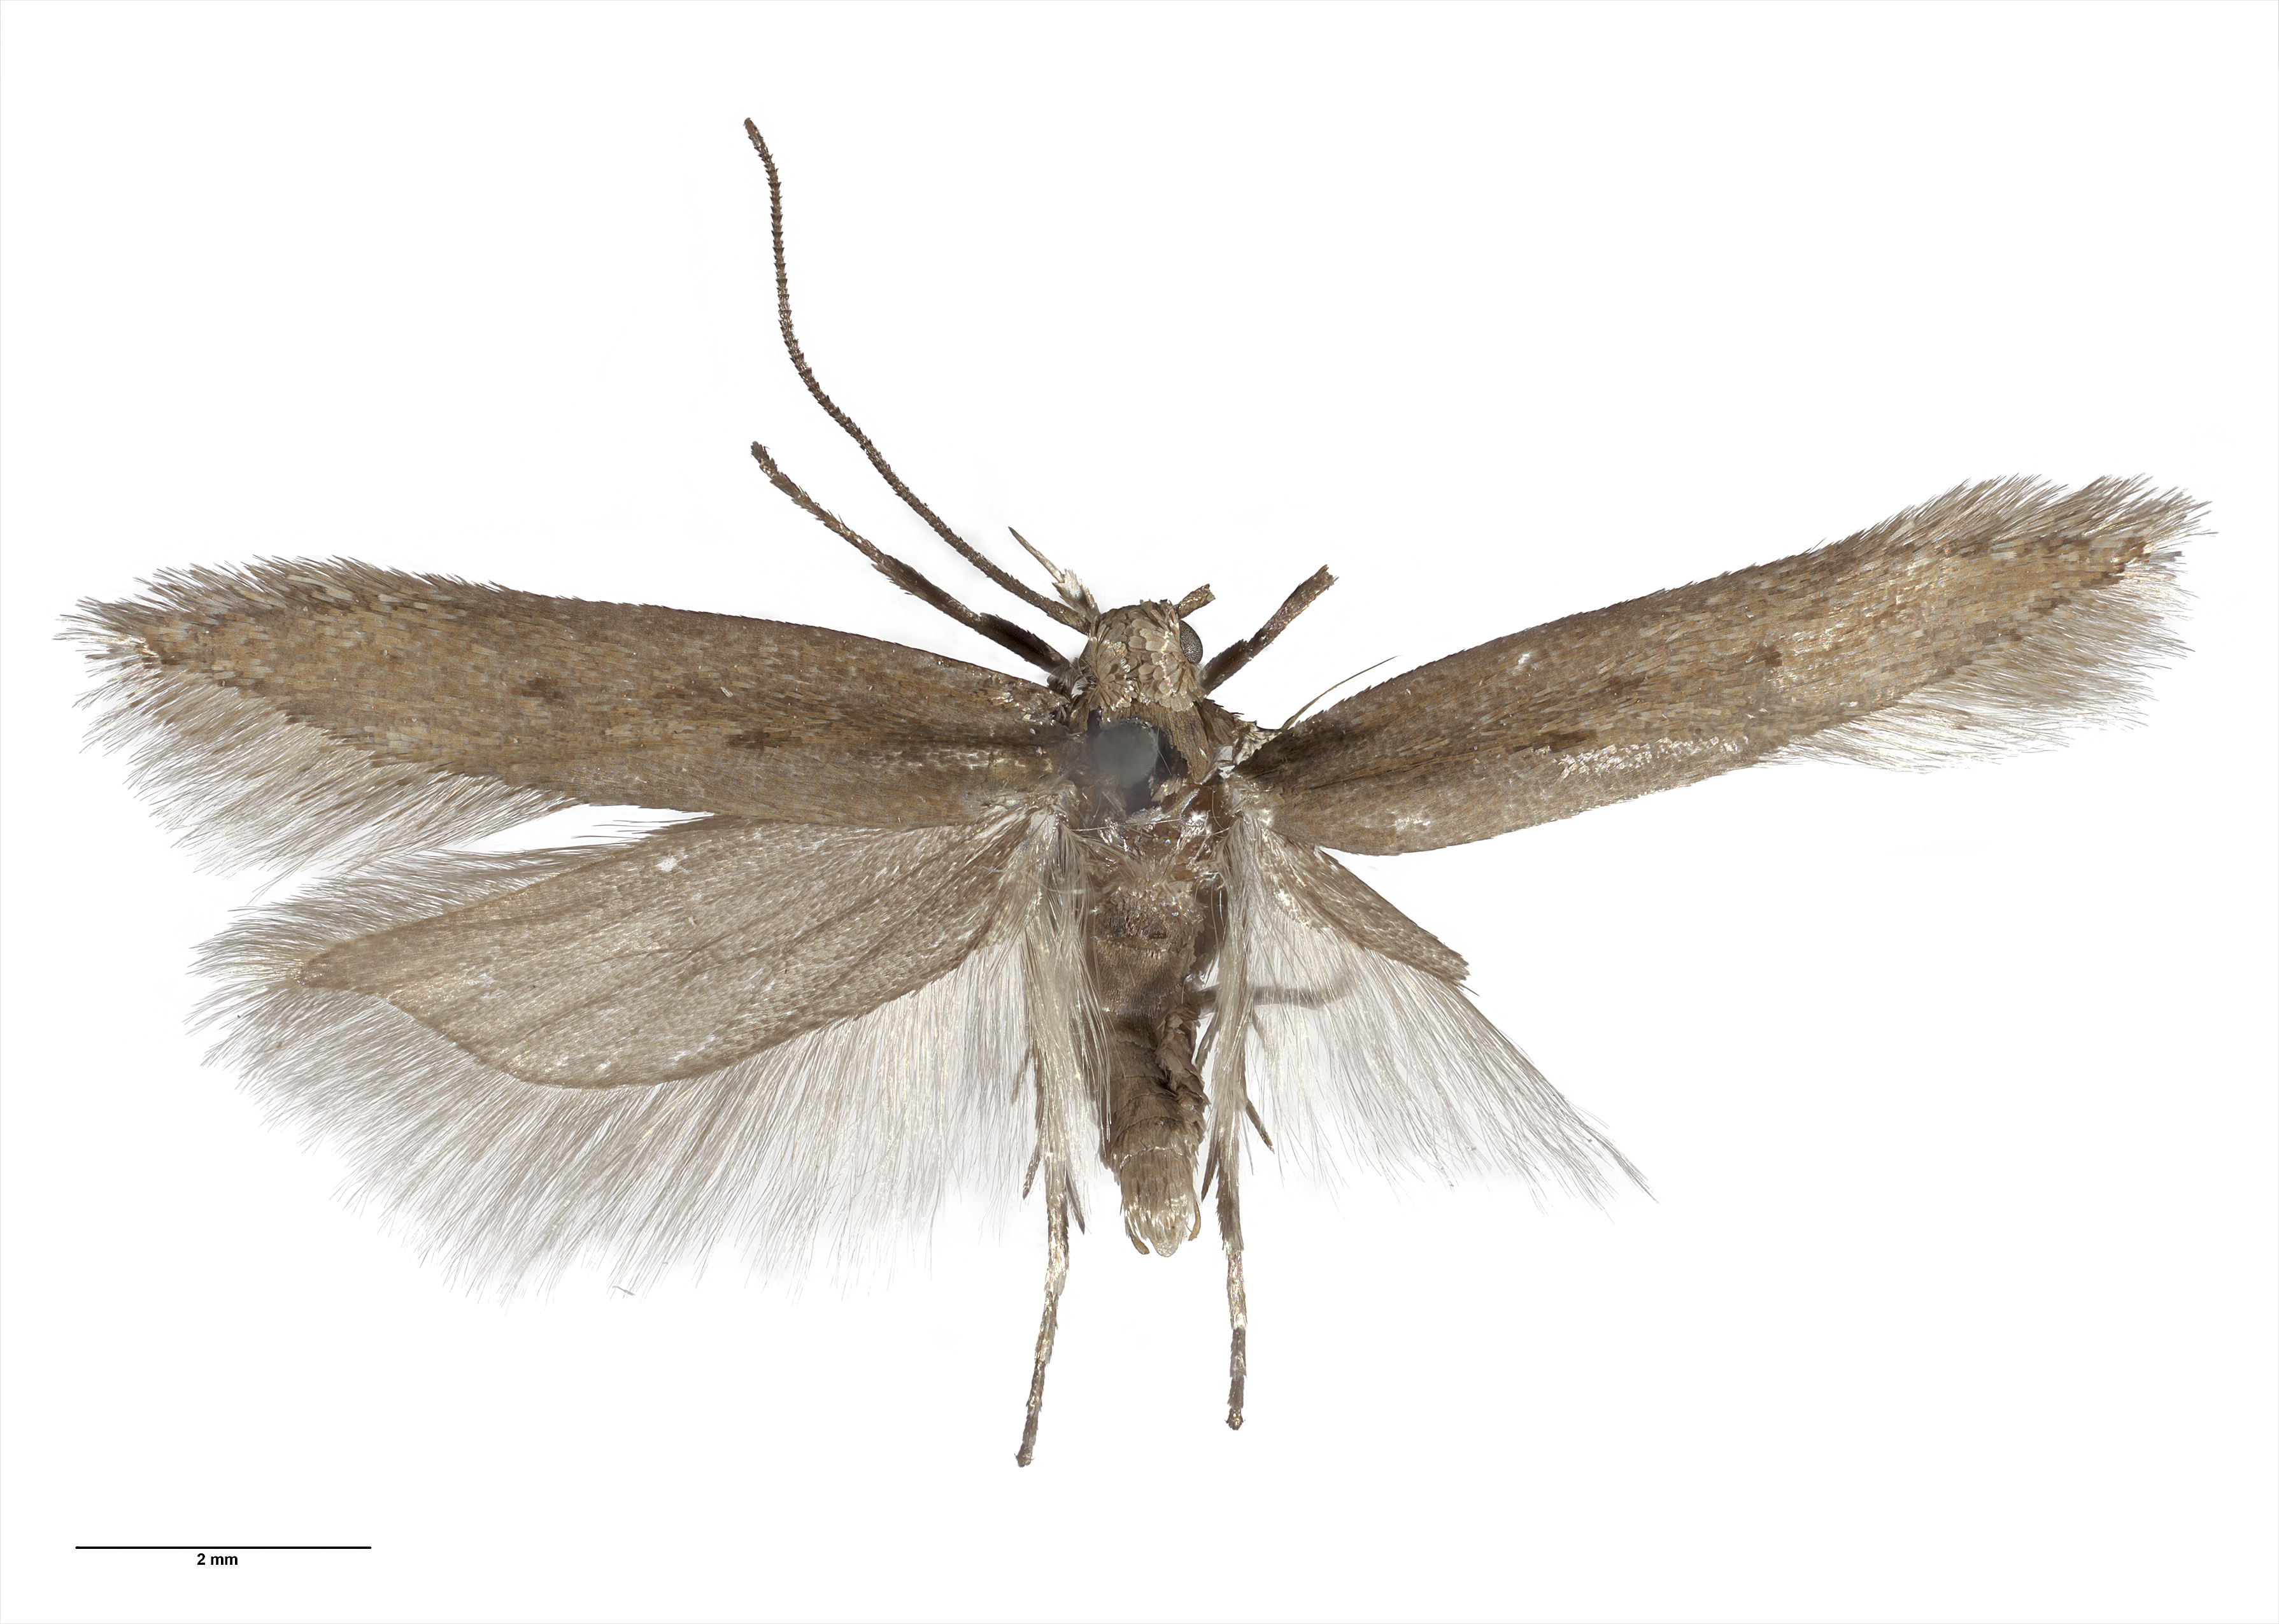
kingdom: Animalia
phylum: Arthropoda
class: Insecta
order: Lepidoptera
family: Gelechiidae
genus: Kiwaia
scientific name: Kiwaia calaspidea
